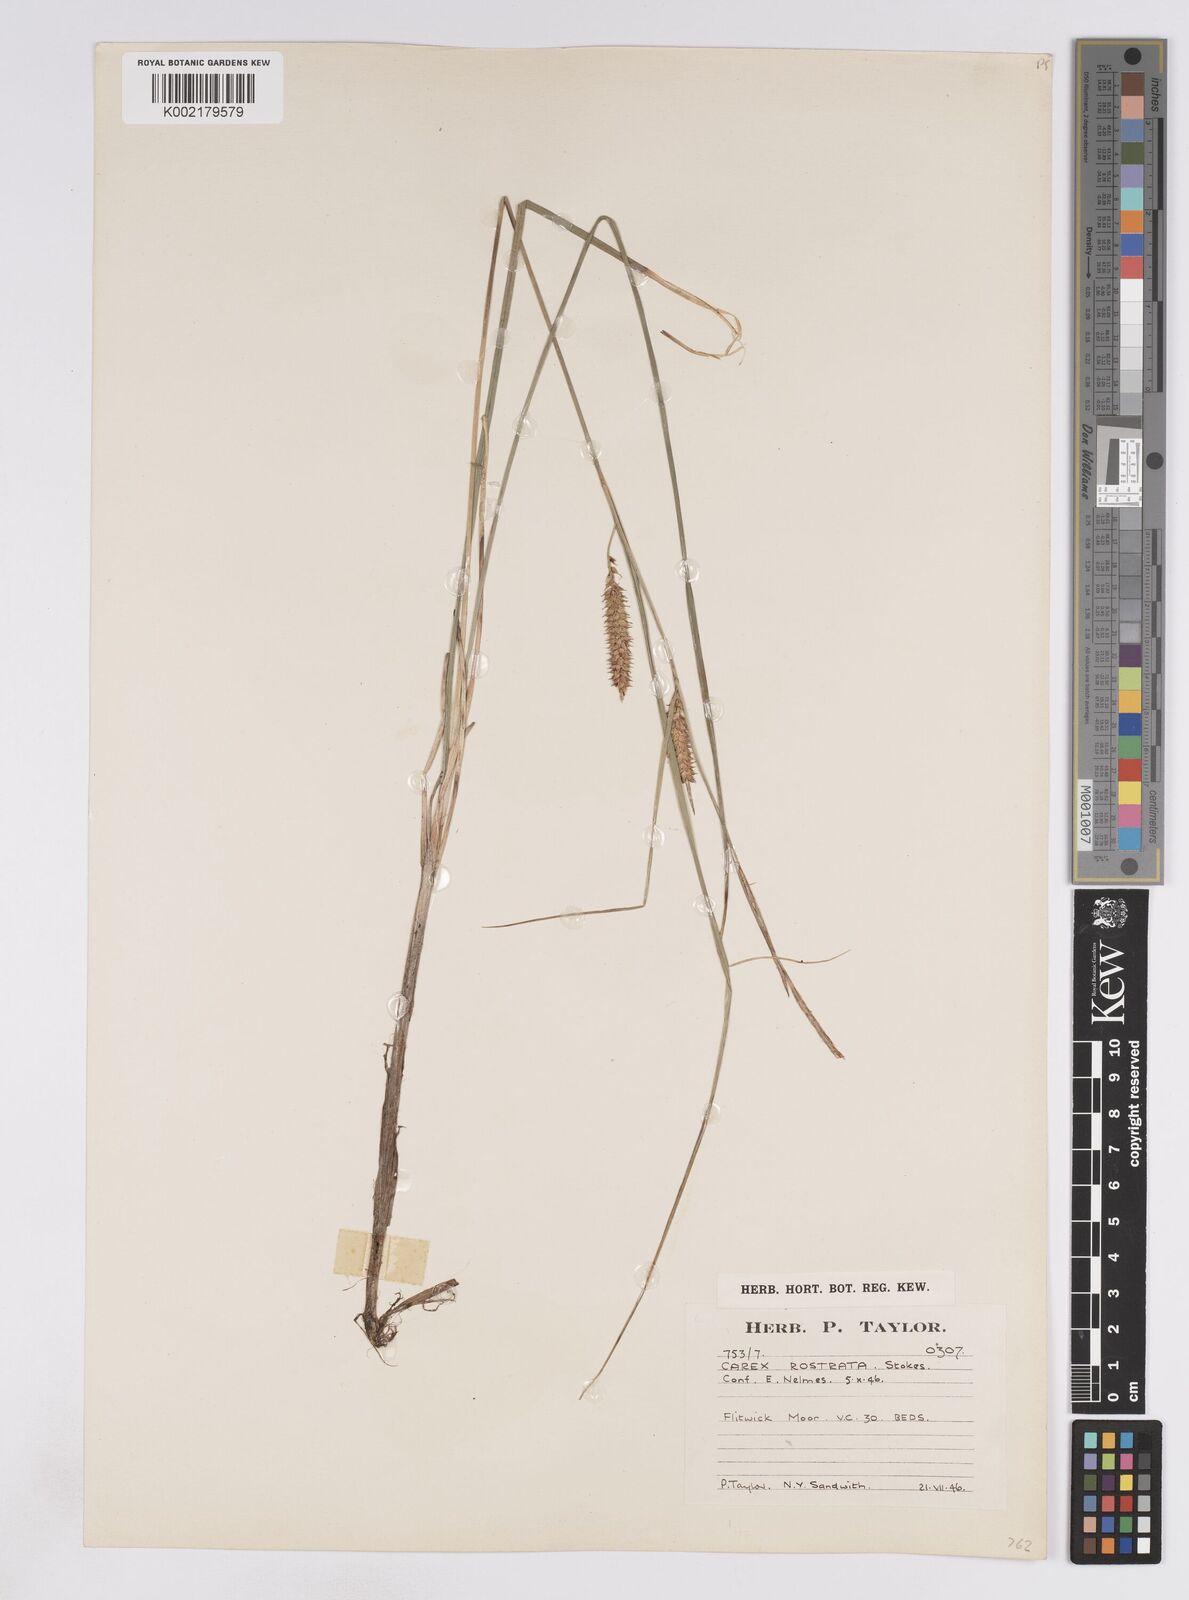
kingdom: Plantae
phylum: Tracheophyta
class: Liliopsida
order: Poales
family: Cyperaceae
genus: Carex
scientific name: Carex rostrata
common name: Bottle sedge
